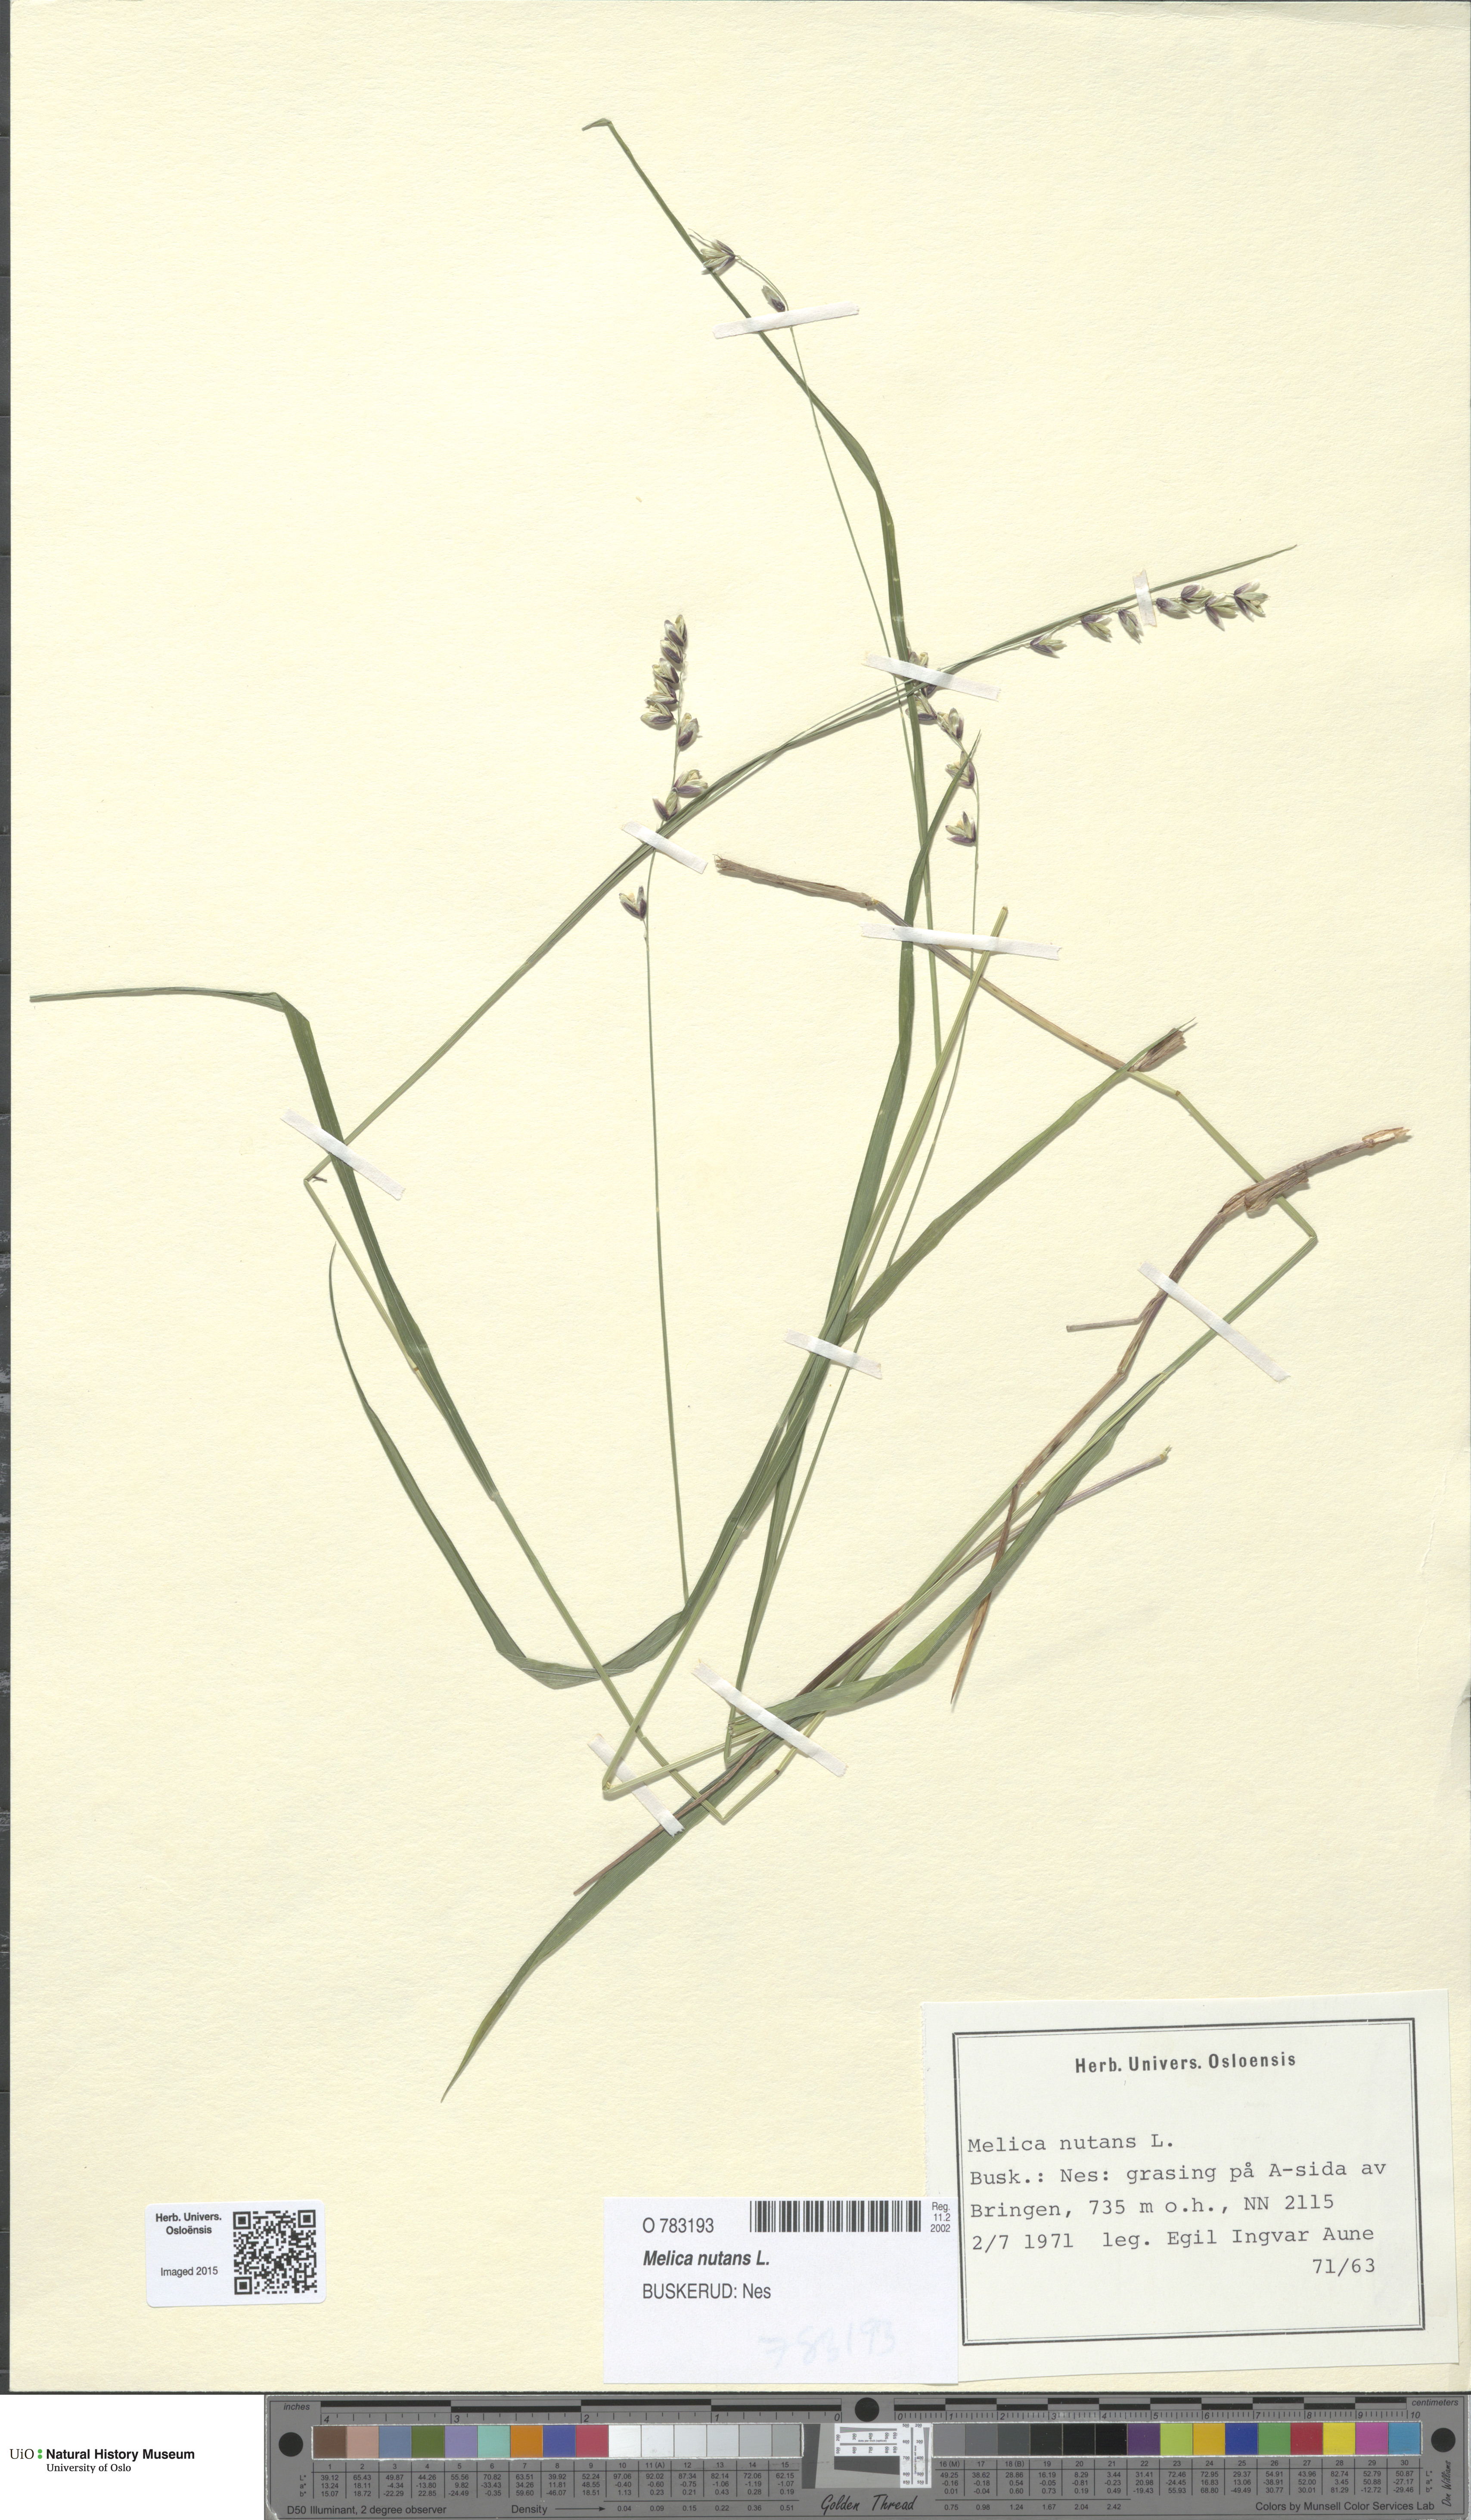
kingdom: Plantae
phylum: Tracheophyta
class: Liliopsida
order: Poales
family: Poaceae
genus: Melica
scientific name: Melica nutans
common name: Mountain melick
